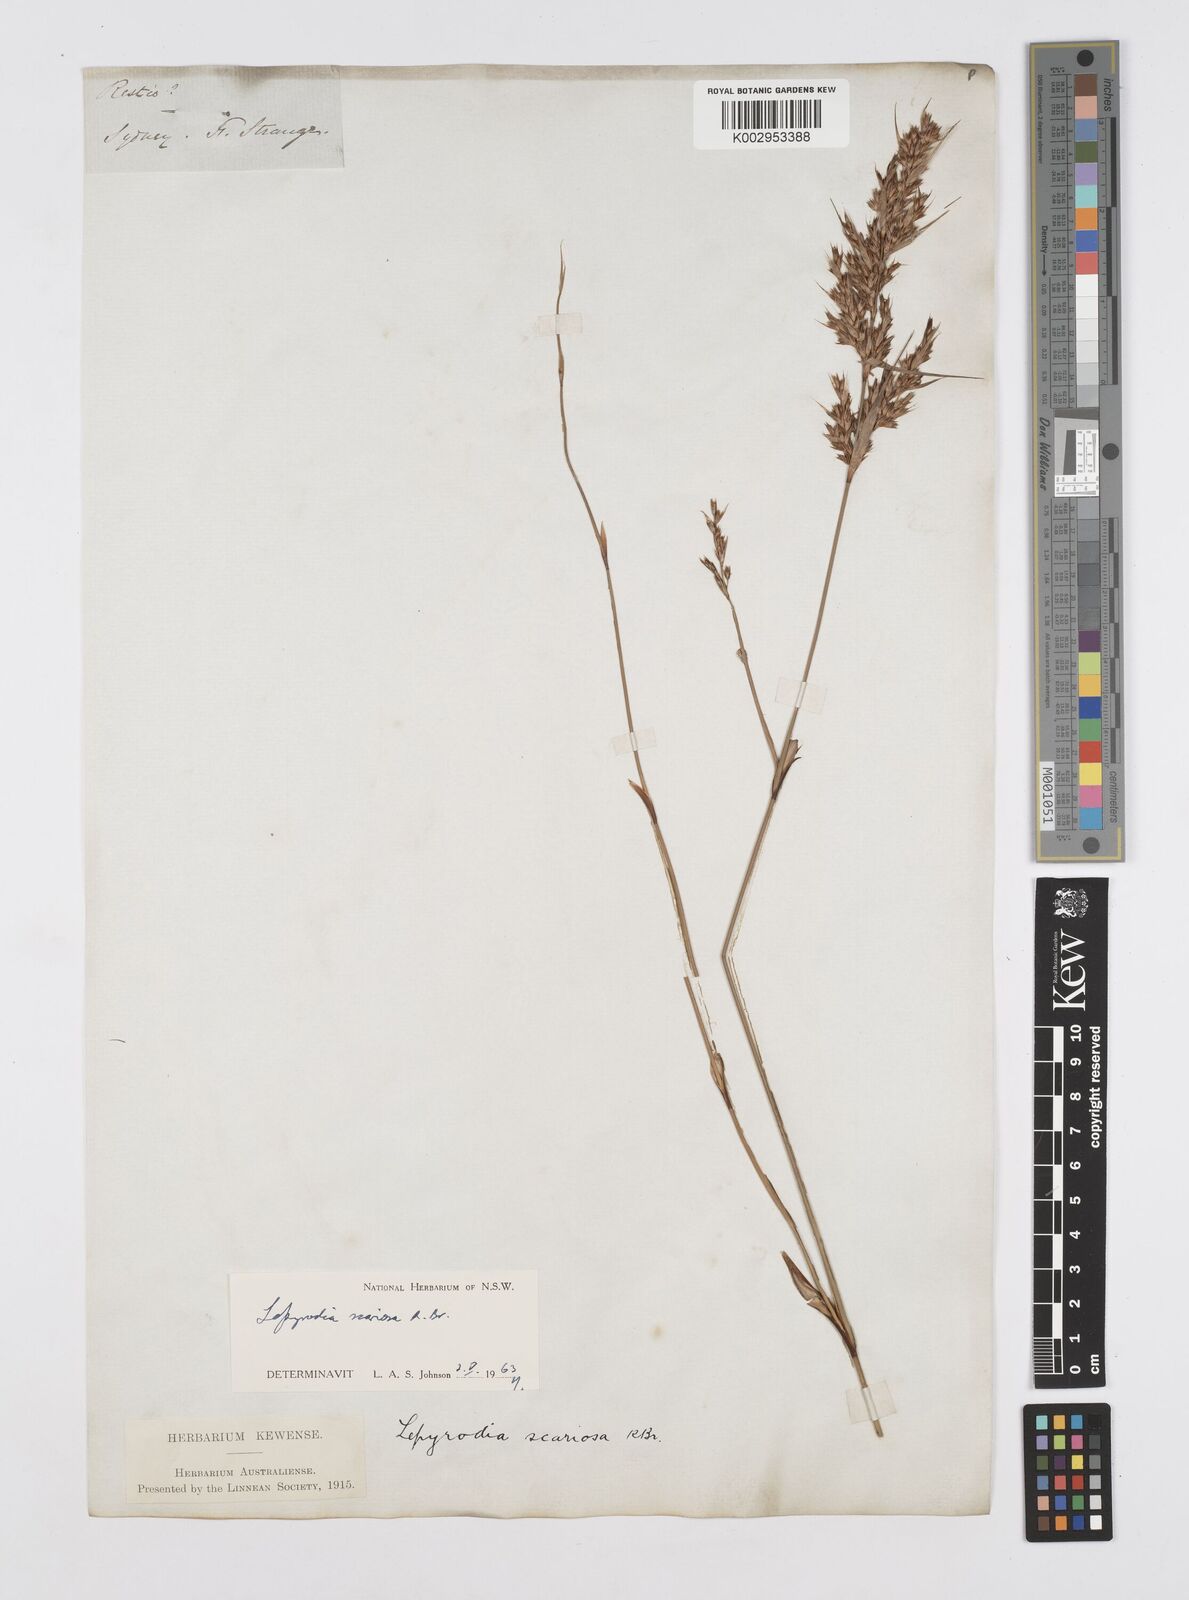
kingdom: Plantae
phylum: Tracheophyta
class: Liliopsida
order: Poales
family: Restionaceae
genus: Lepyrodia
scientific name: Lepyrodia scariosa
